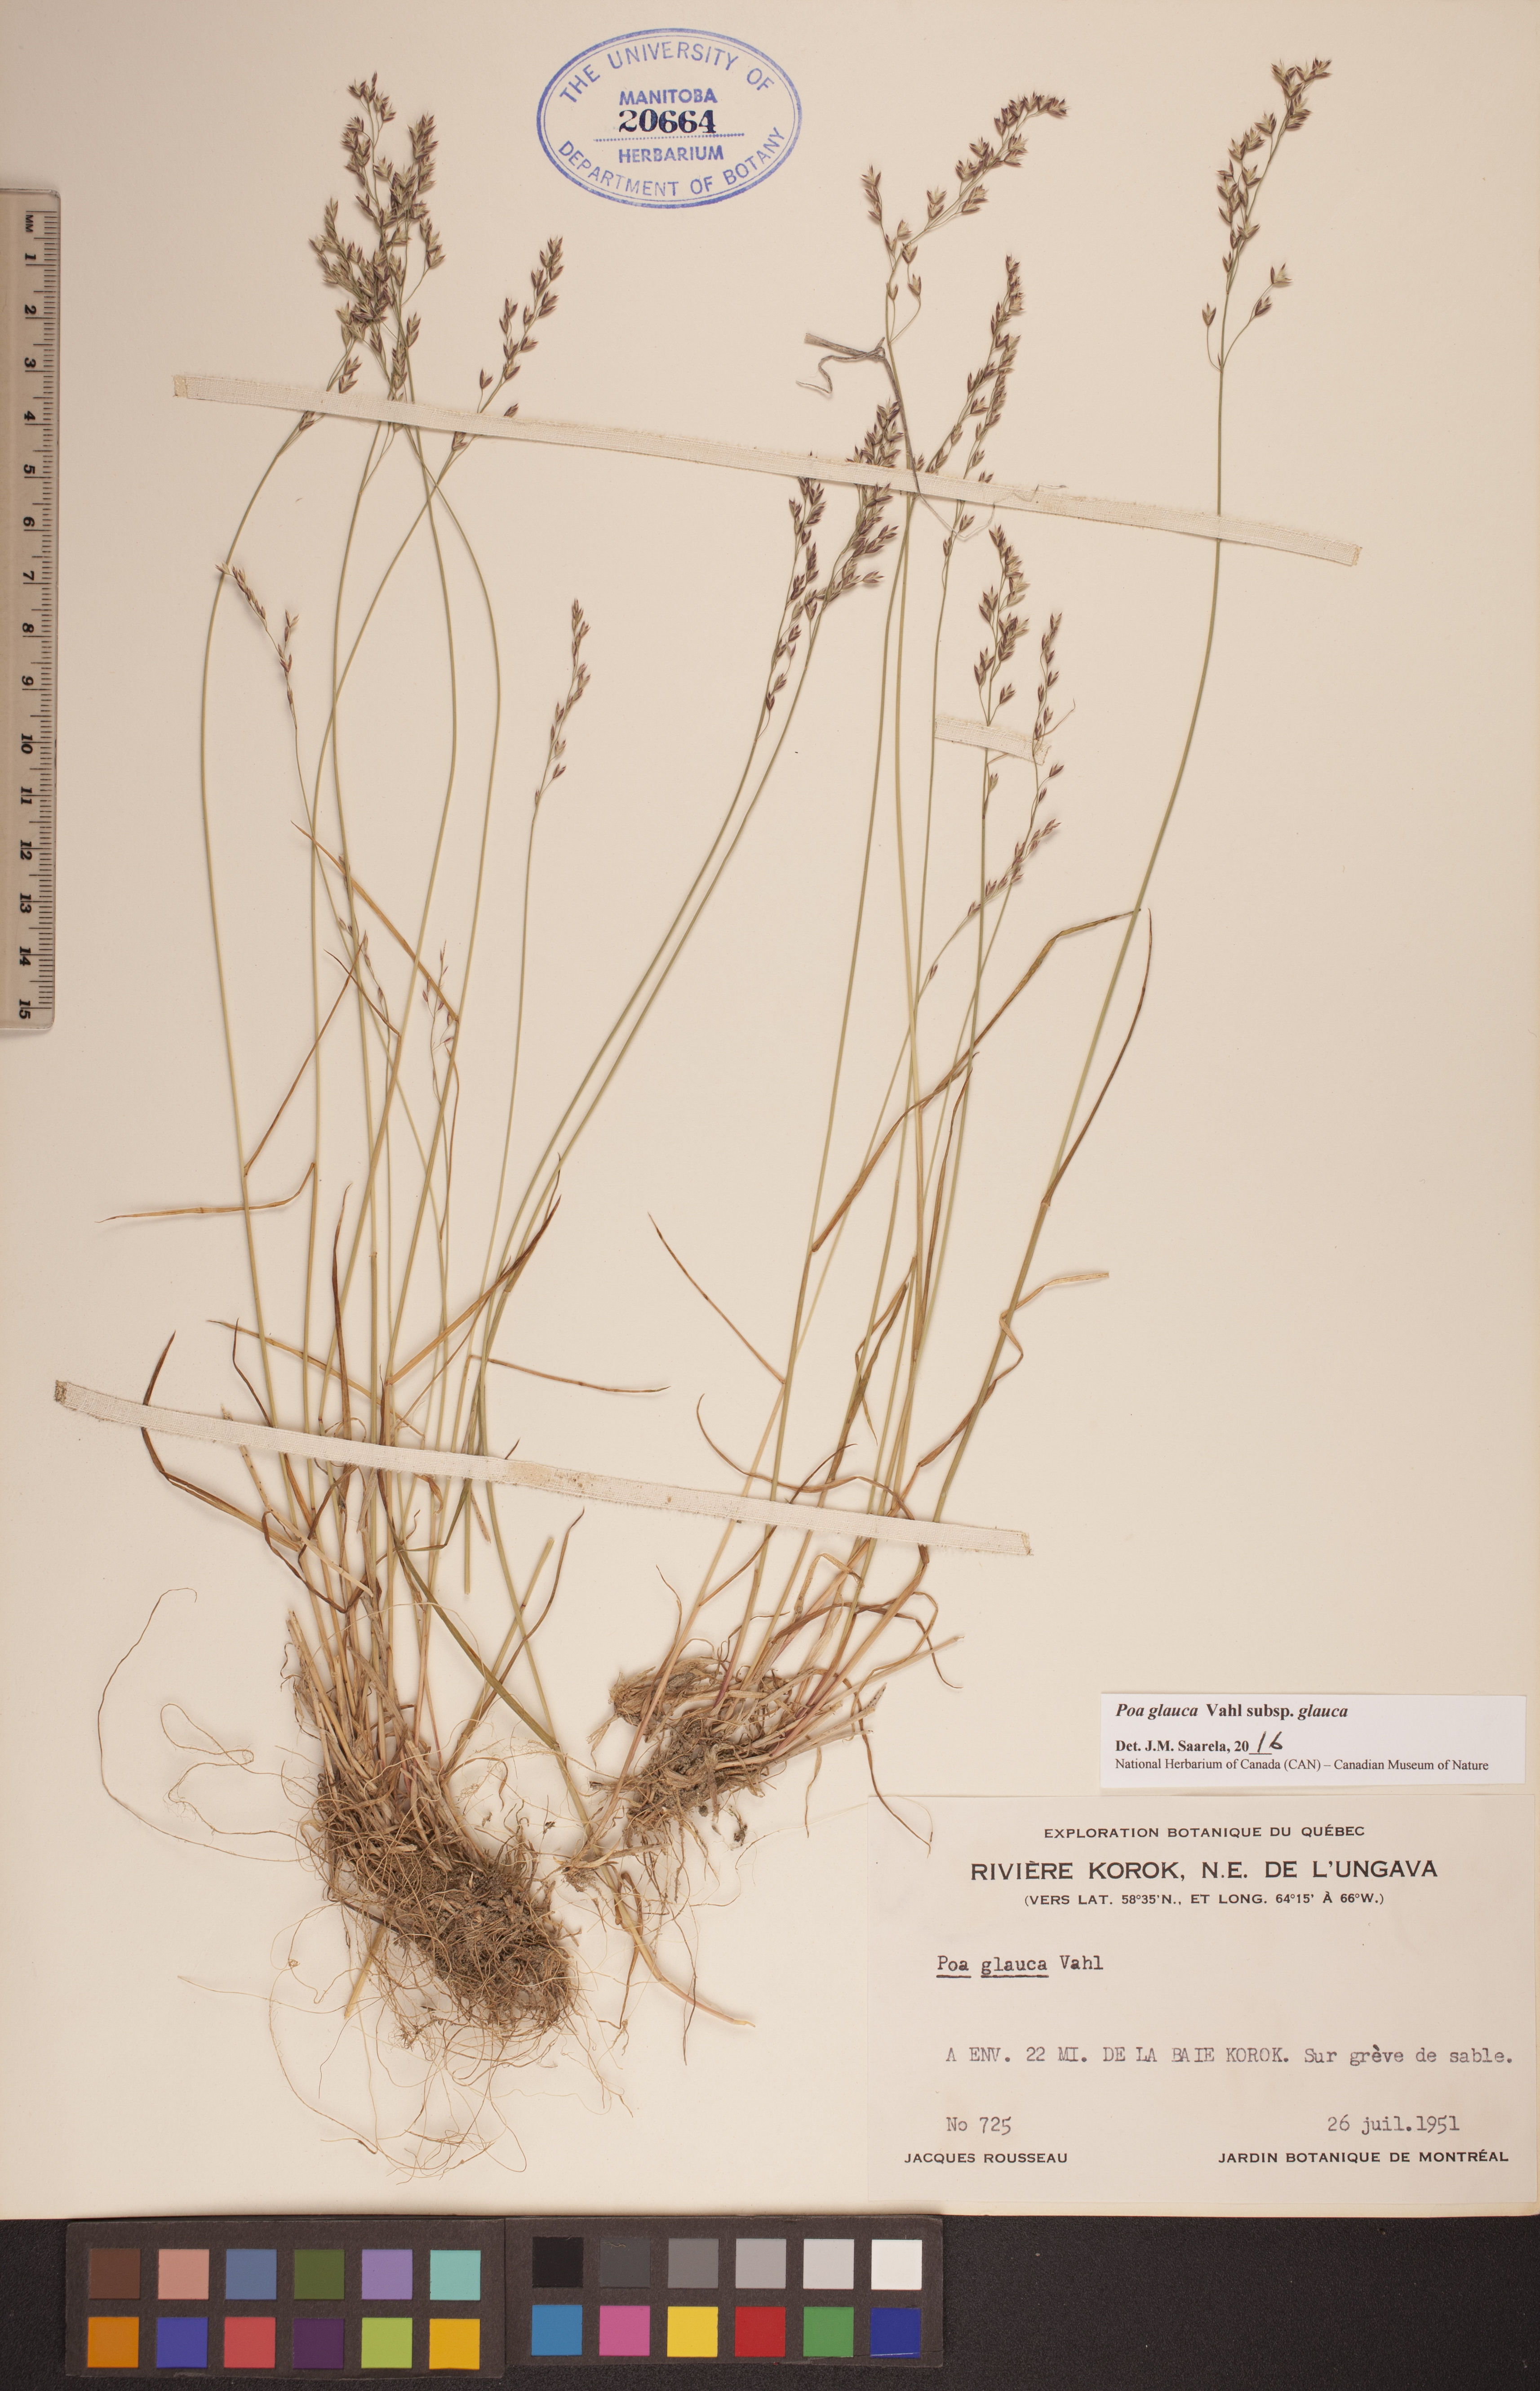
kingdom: Plantae
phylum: Tracheophyta
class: Liliopsida
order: Poales
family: Poaceae
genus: Poa
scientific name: Poa glauca
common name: Glaucous bluegrass
